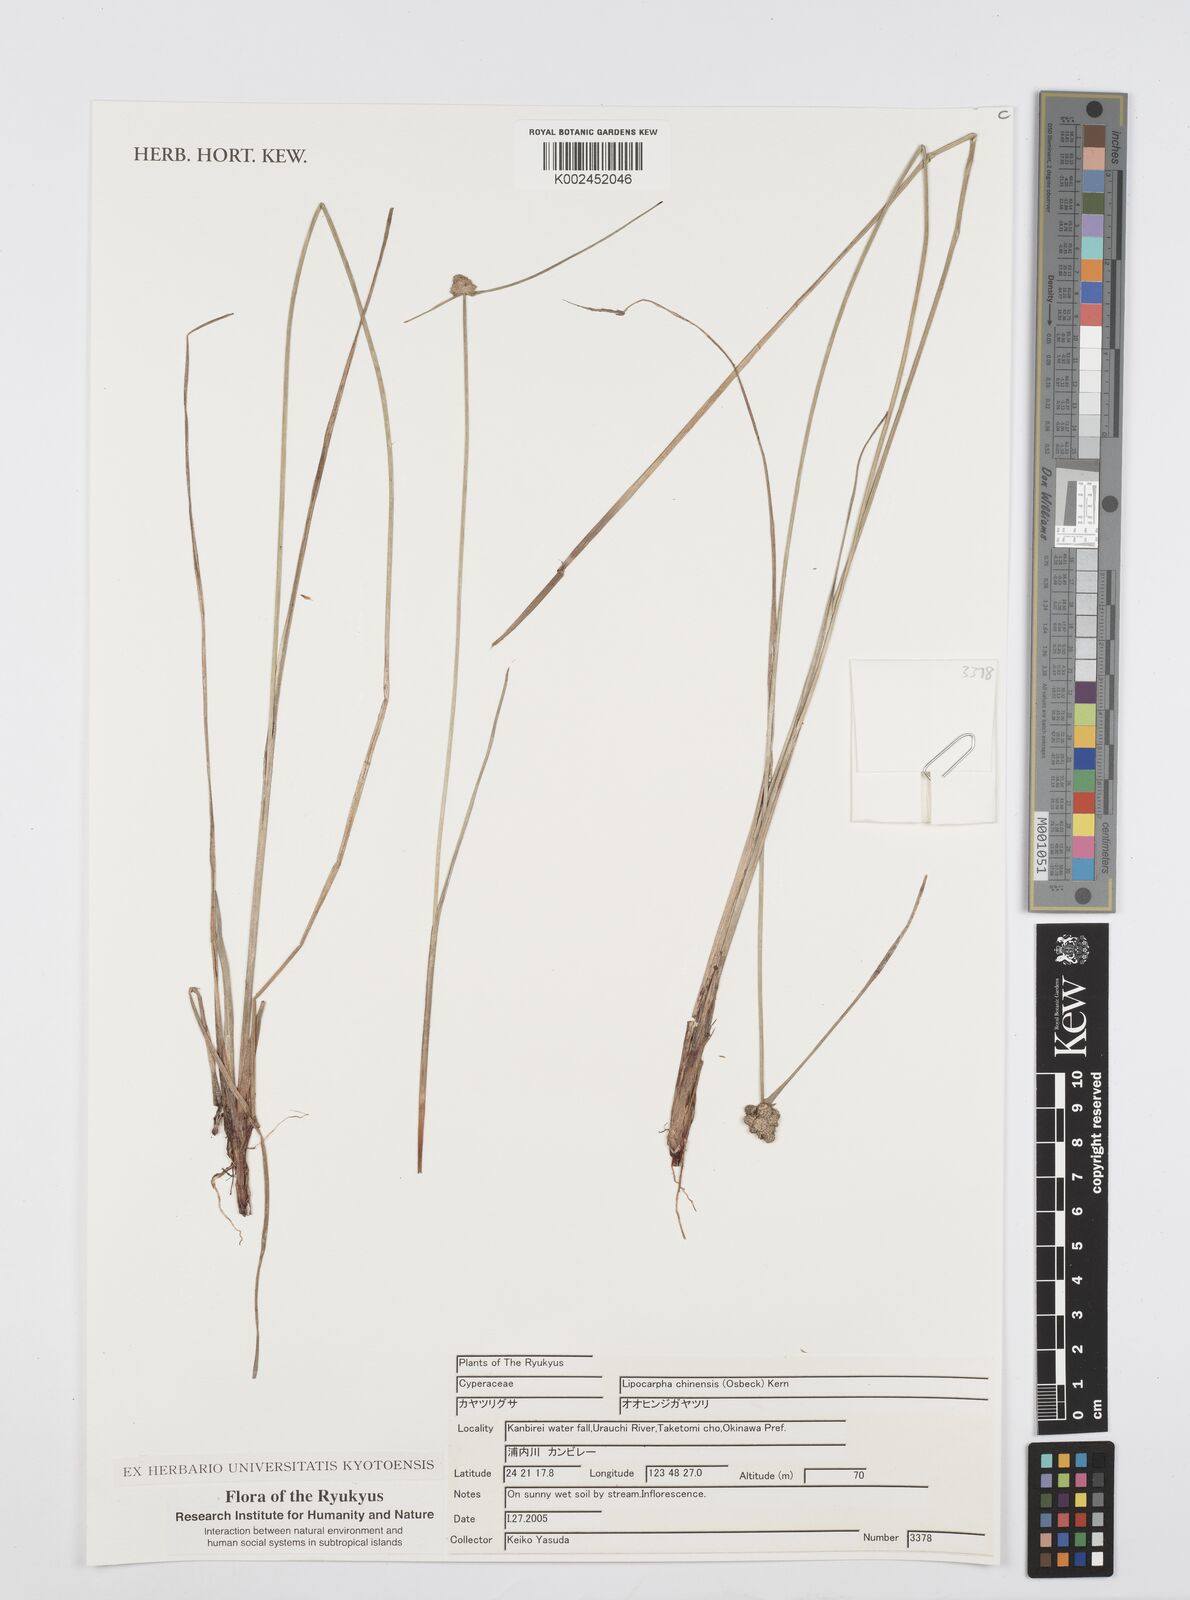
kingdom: Plantae
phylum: Tracheophyta
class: Liliopsida
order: Poales
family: Cyperaceae
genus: Cyperus
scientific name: Cyperus albescens
